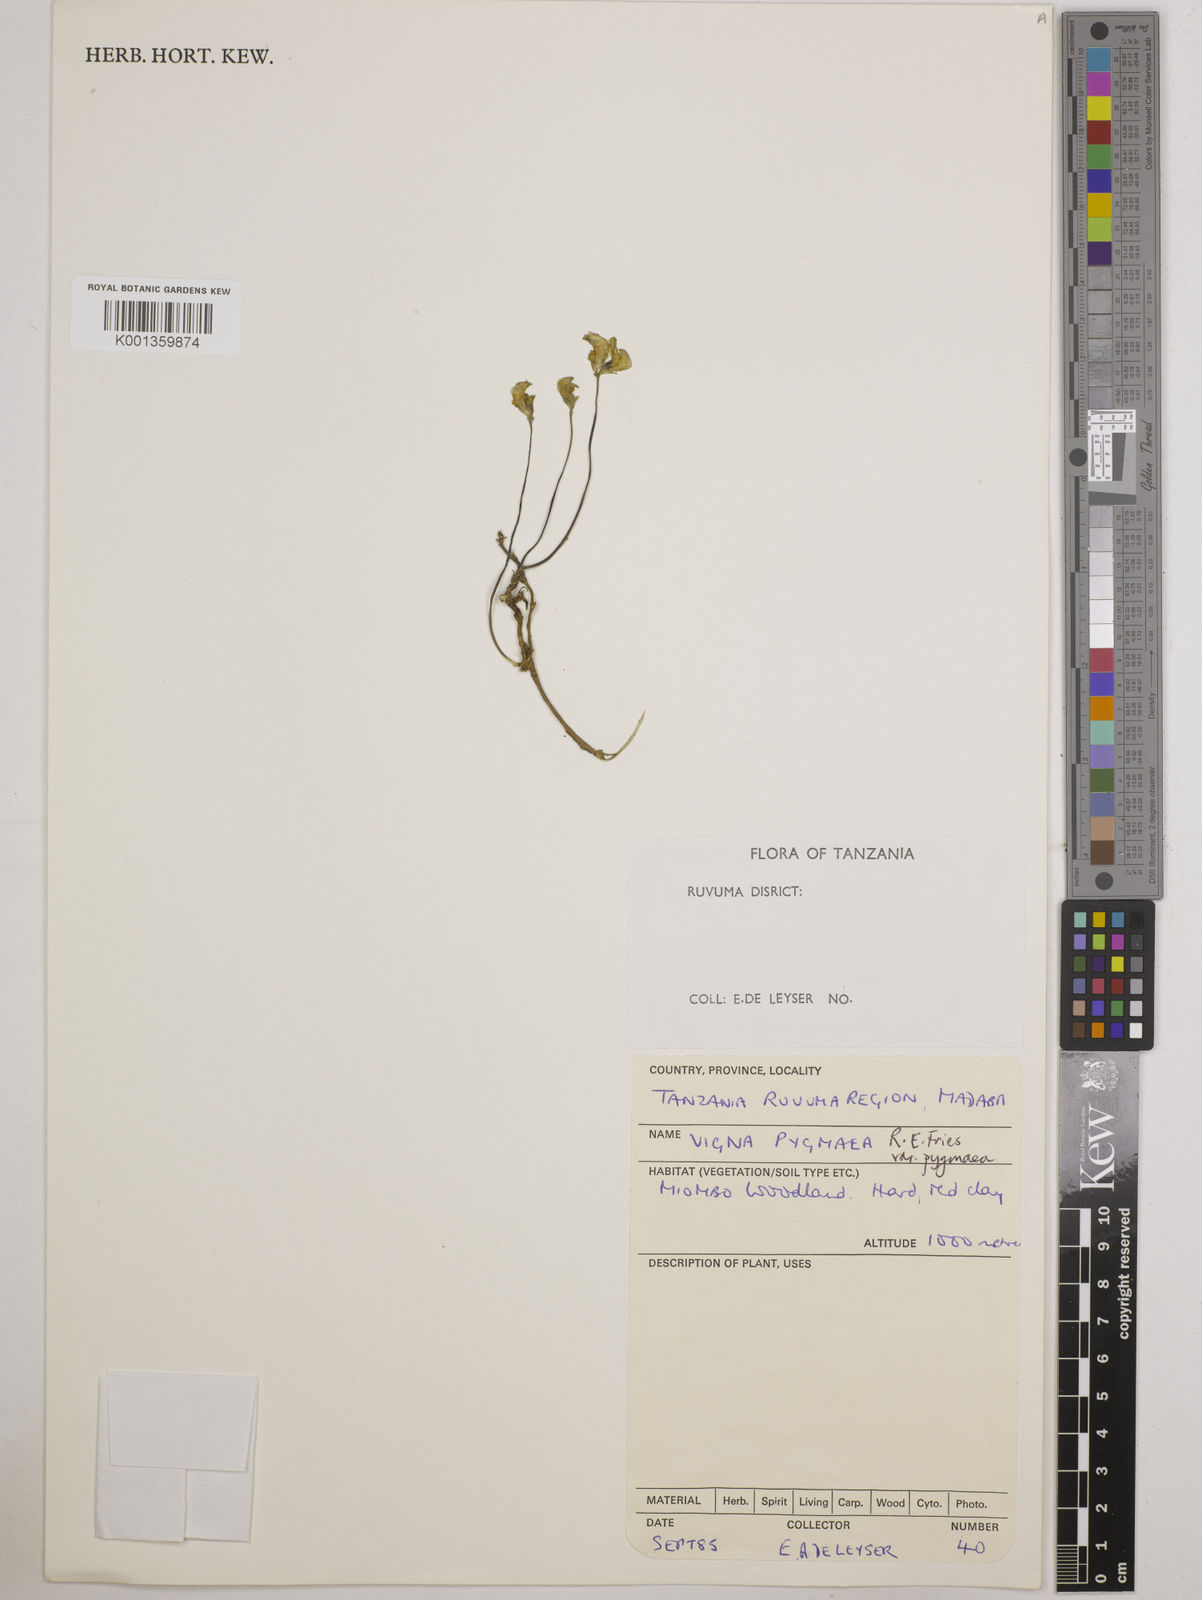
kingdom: Plantae
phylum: Tracheophyta
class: Magnoliopsida
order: Fabales
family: Fabaceae
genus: Vigna
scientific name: Vigna pygmaea
